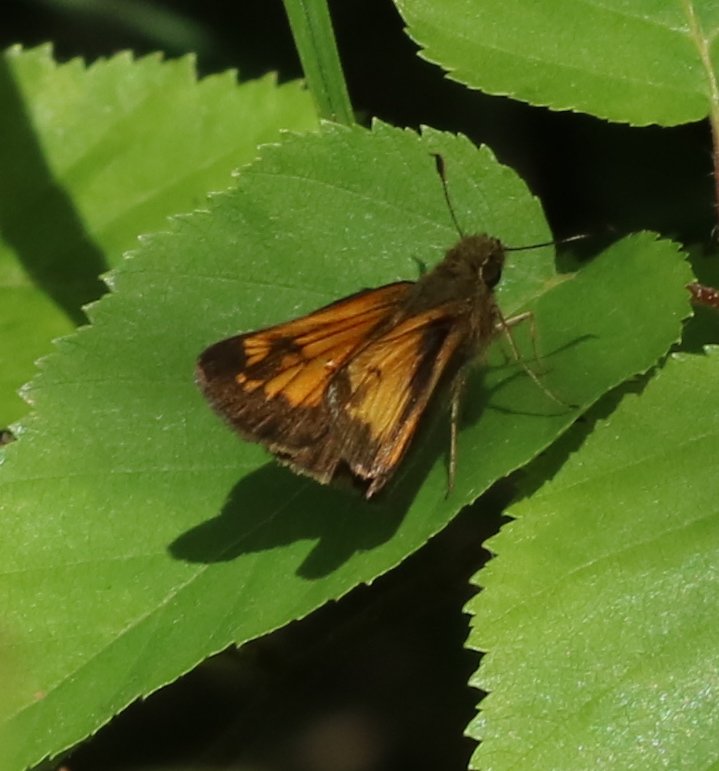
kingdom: Animalia
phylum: Arthropoda
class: Insecta
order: Lepidoptera
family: Hesperiidae
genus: Lon
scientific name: Lon hobomok
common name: Hobomok Skipper
